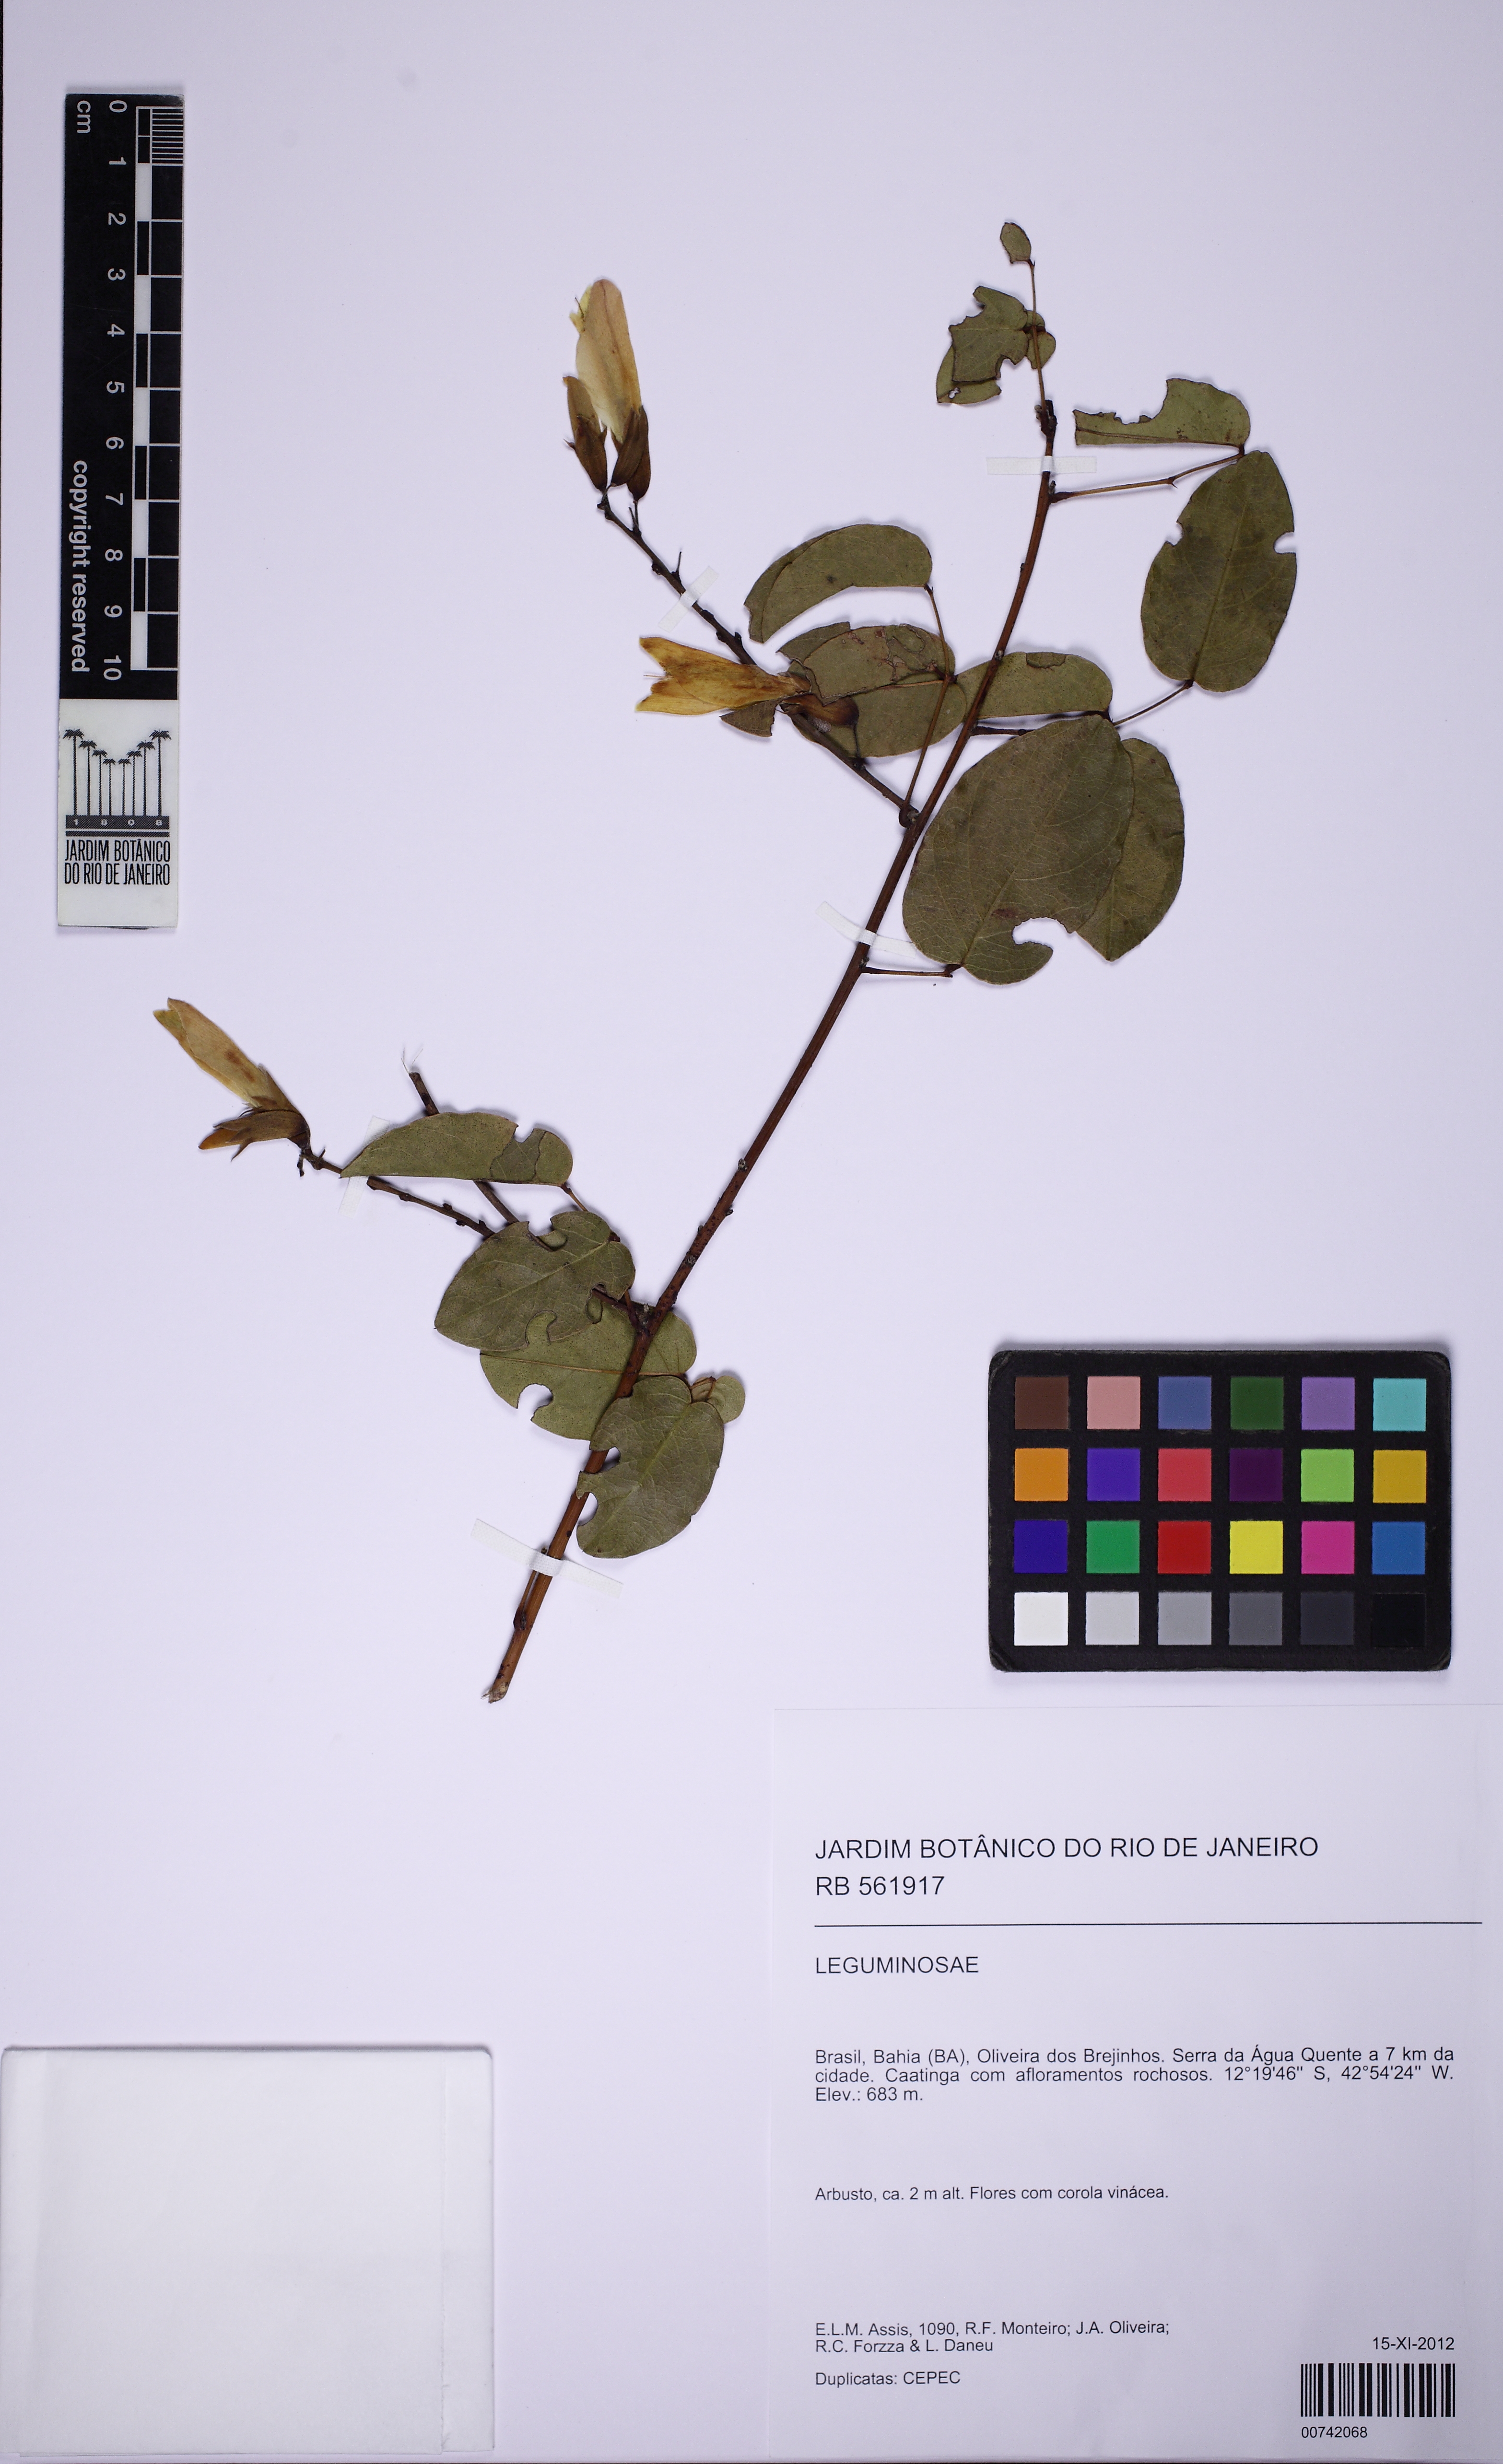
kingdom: Plantae
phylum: Tracheophyta
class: Magnoliopsida
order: Fabales
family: Fabaceae
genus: Camptosema
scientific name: Camptosema
